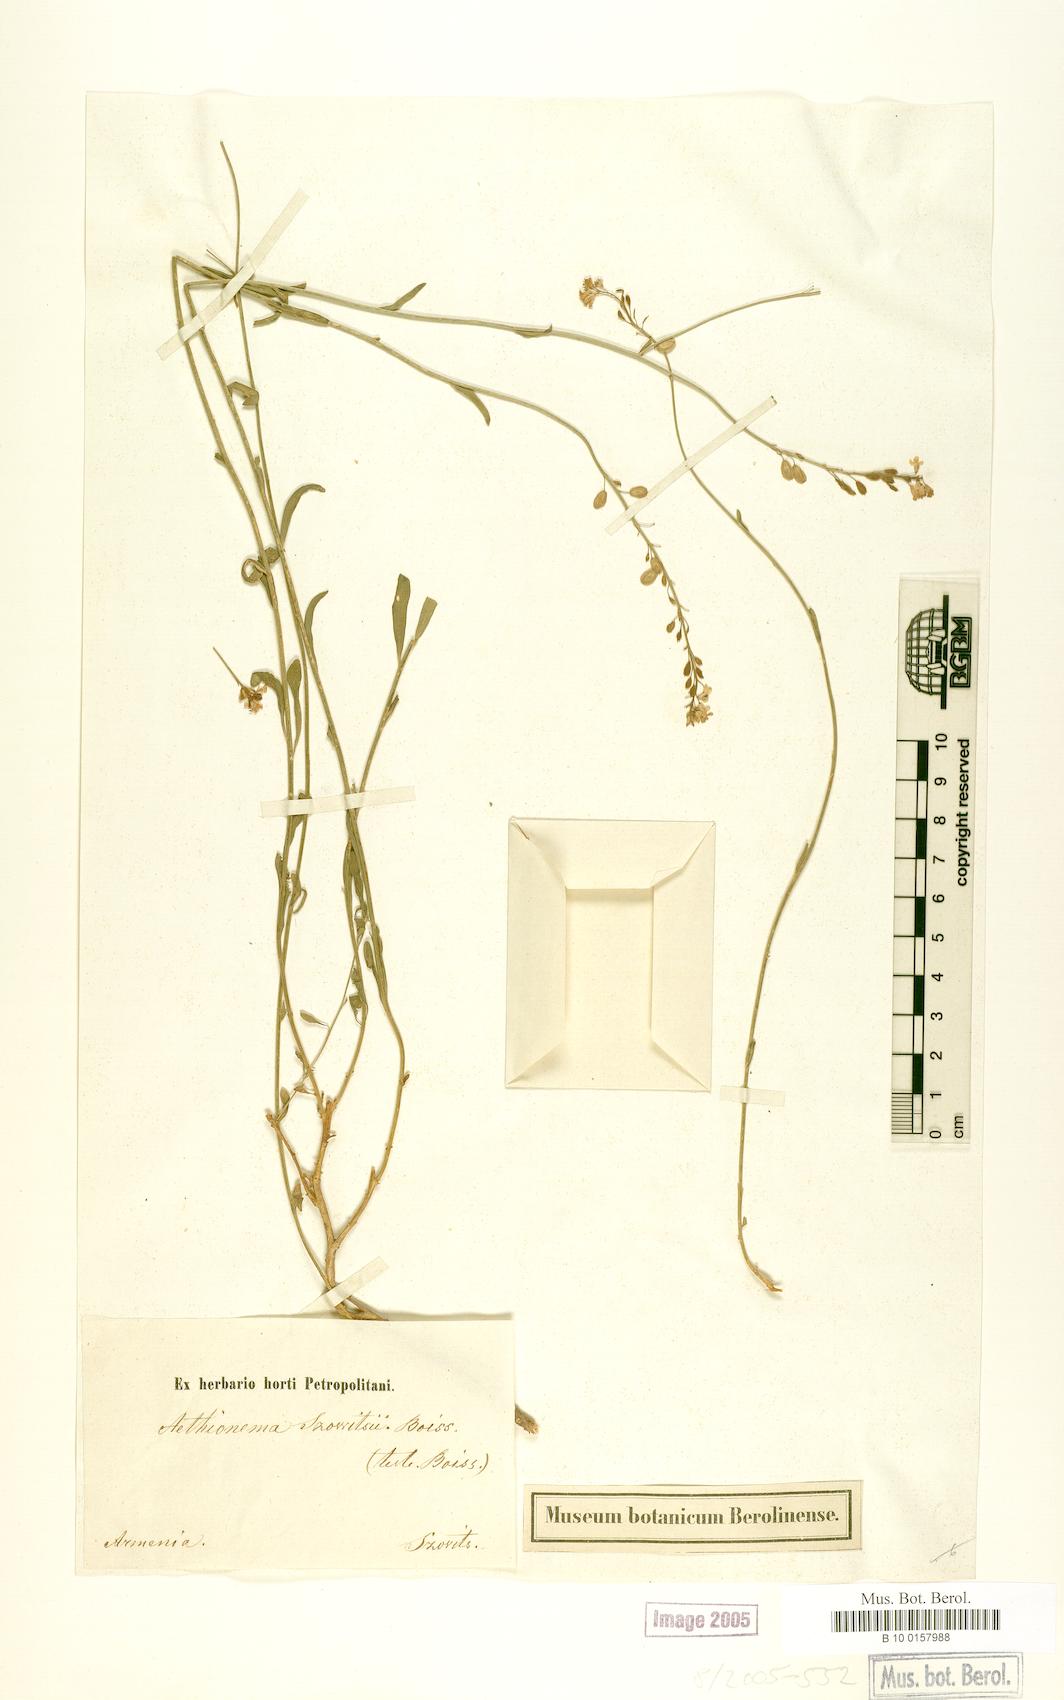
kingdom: Plantae
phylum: Tracheophyta
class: Magnoliopsida
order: Brassicales
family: Brassicaceae
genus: Aethionema
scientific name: Aethionema virgatum
